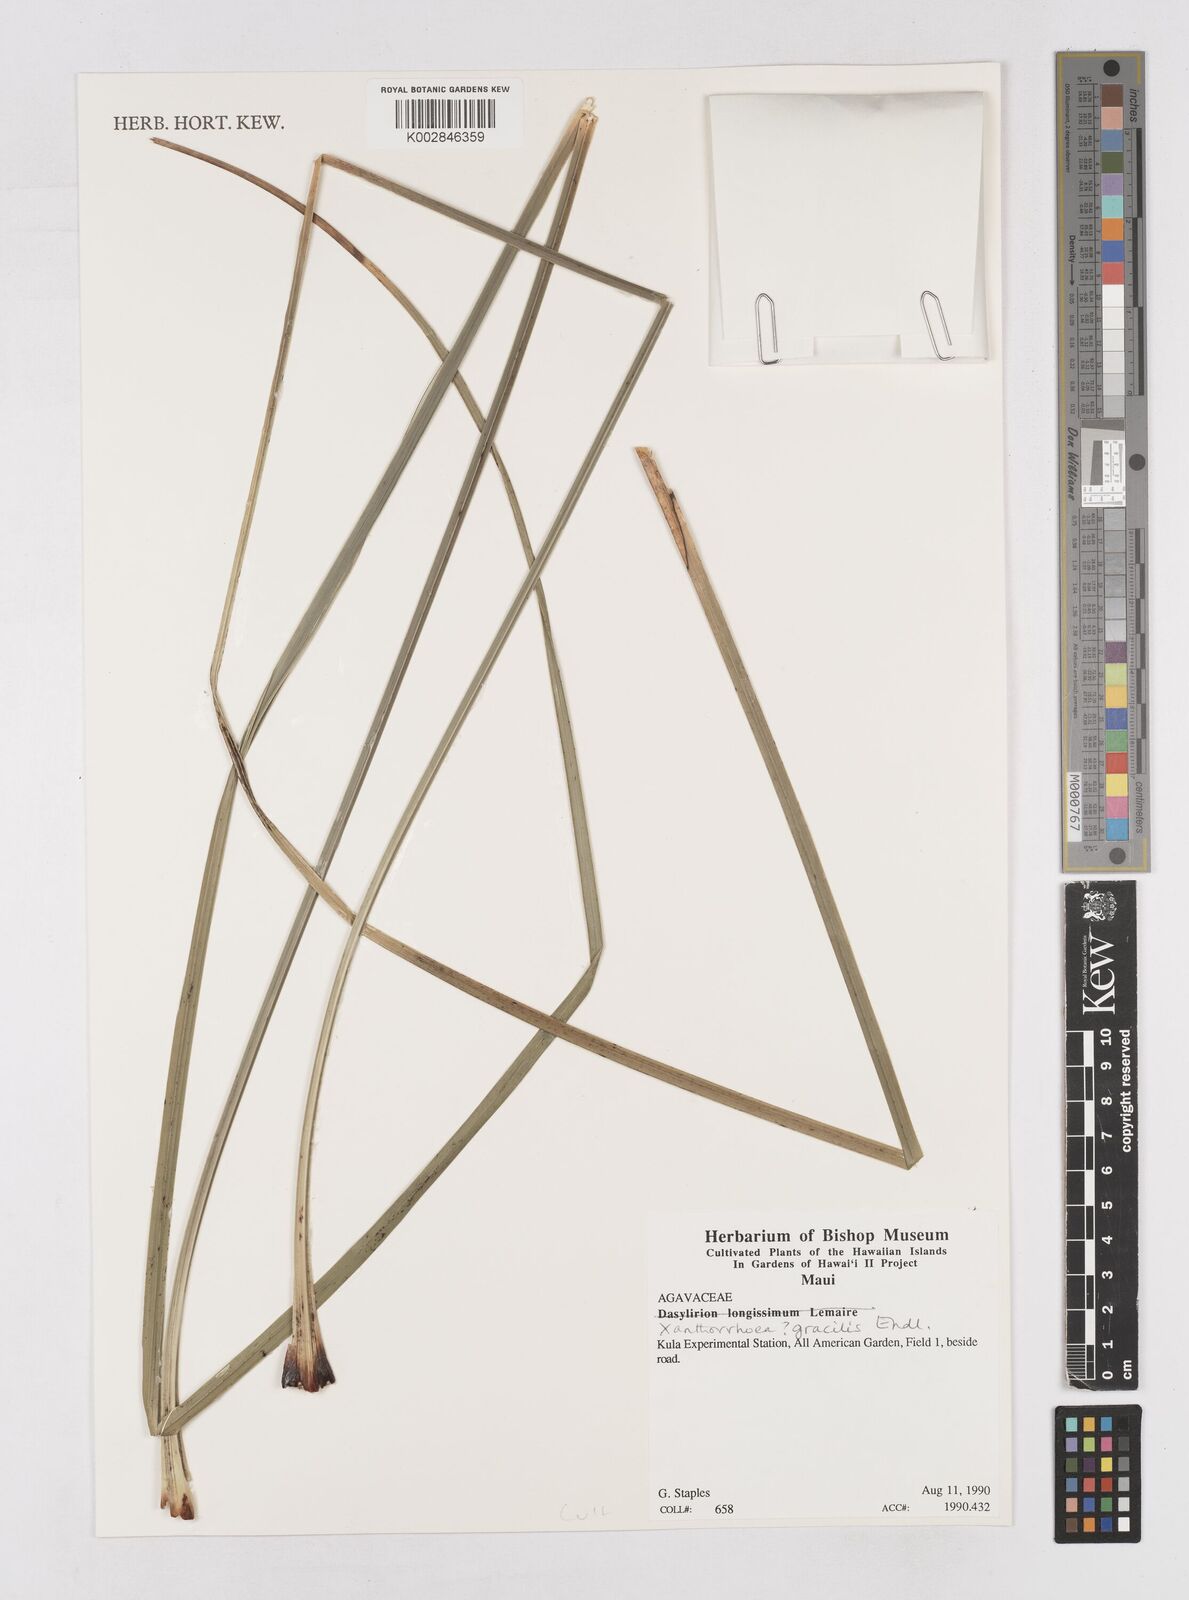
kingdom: Plantae
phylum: Tracheophyta
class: Liliopsida
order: Asparagales
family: Asphodelaceae
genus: Xanthorrhoea
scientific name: Xanthorrhoea gracilis
